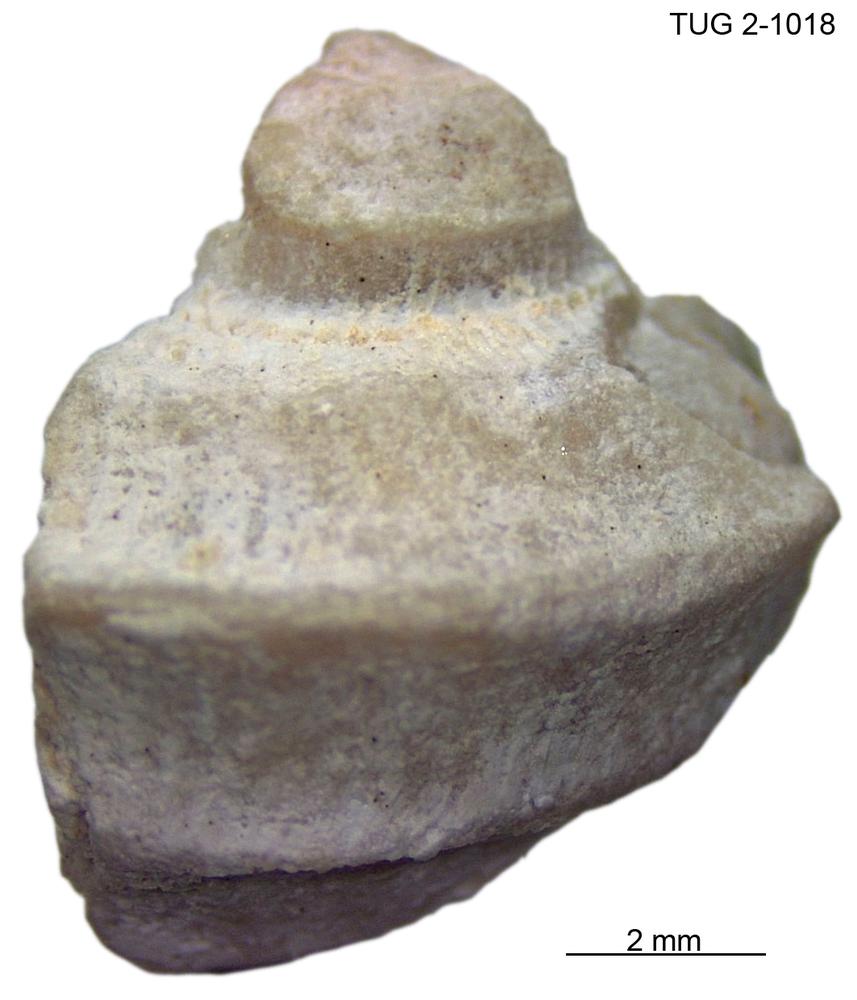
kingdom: Animalia
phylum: Mollusca
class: Gastropoda
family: Trochonematidae
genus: Trochonema
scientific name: Trochonema panderi
